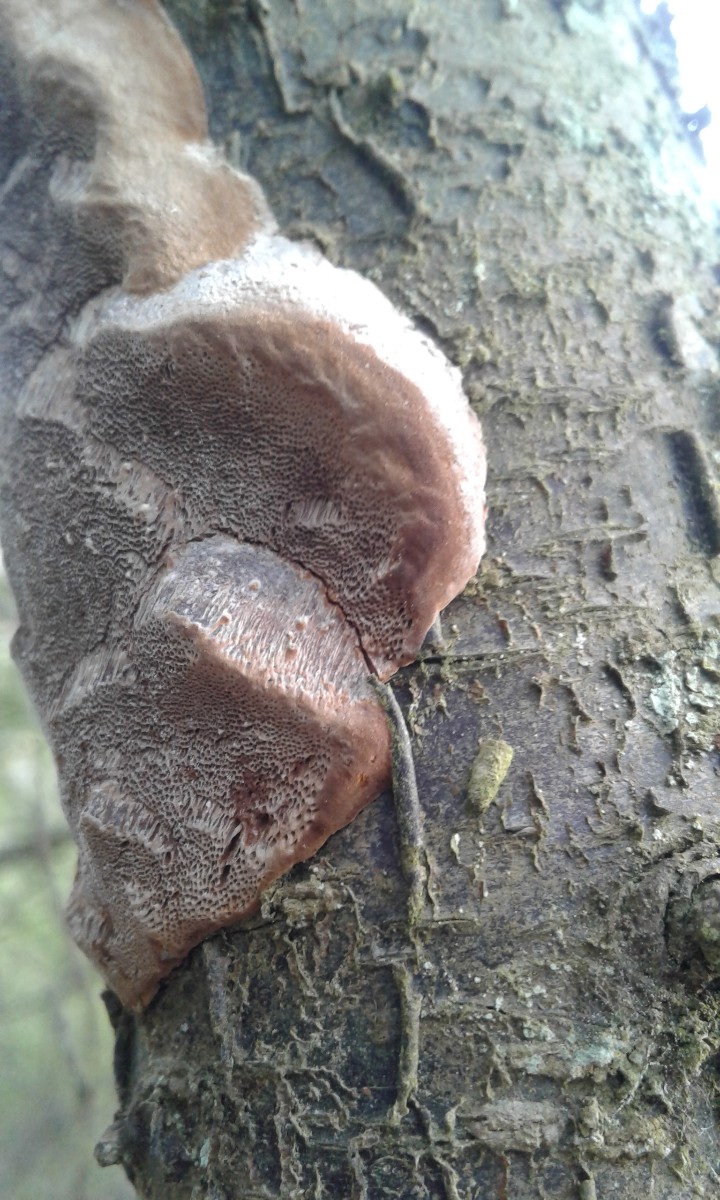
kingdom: Fungi
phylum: Basidiomycota
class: Agaricomycetes
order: Hymenochaetales
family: Hymenochaetaceae
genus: Phellinus
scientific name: Phellinus pomaceus
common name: blomme-ildporesvamp
